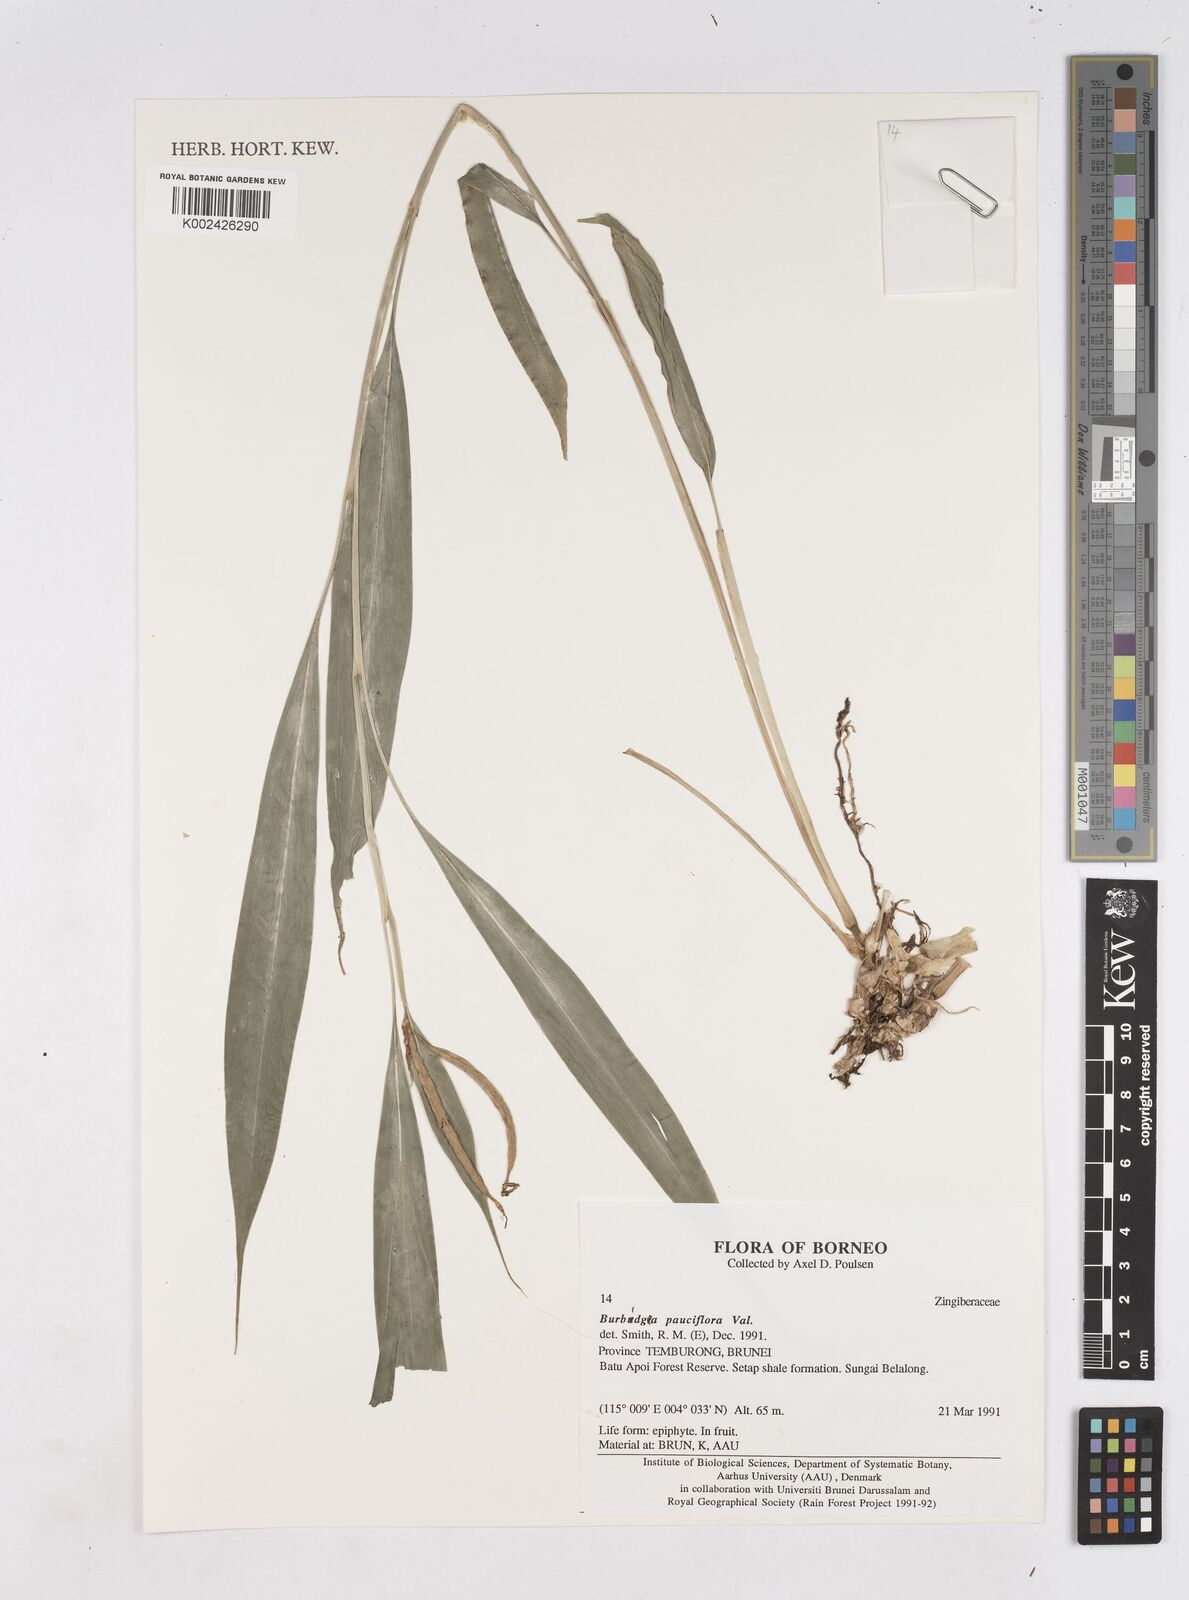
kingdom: Plantae
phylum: Tracheophyta
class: Liliopsida
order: Zingiberales
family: Zingiberaceae
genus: Burbidgea
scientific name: Burbidgea pauciflora
